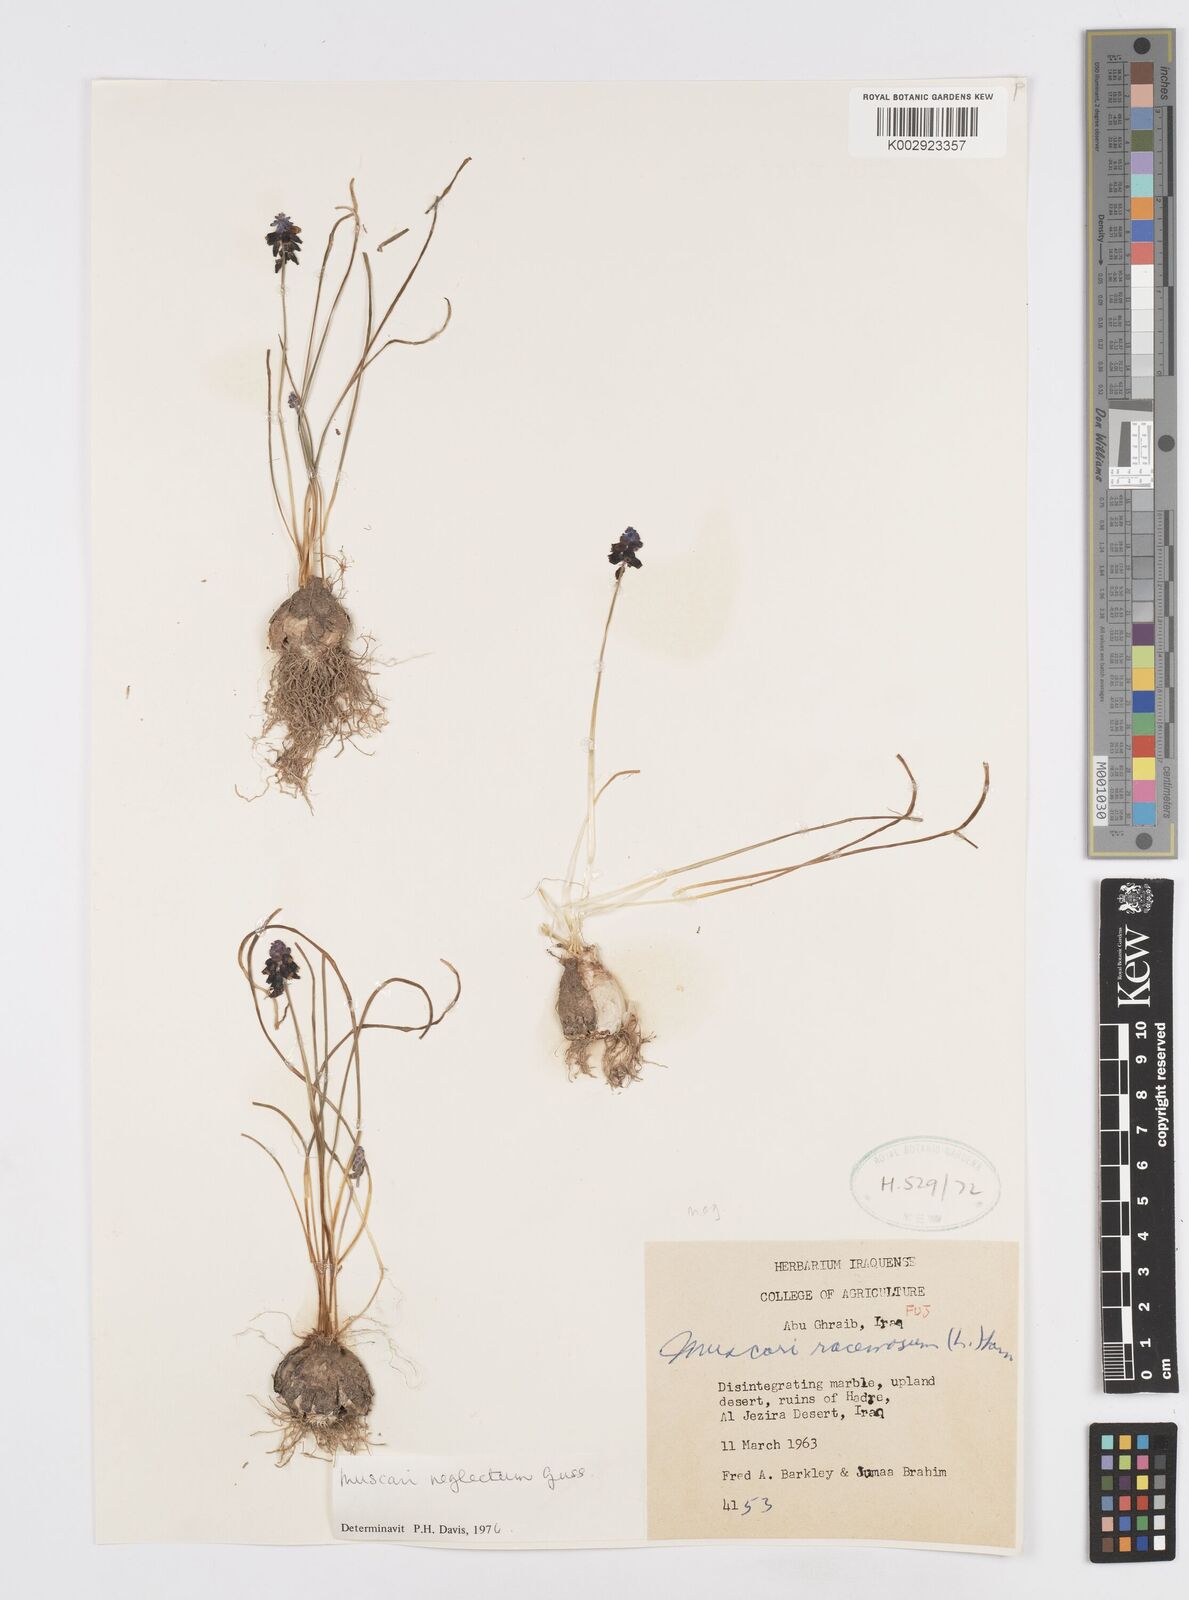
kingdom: Plantae
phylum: Tracheophyta
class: Liliopsida
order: Asparagales
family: Asparagaceae
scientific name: Asparagaceae
